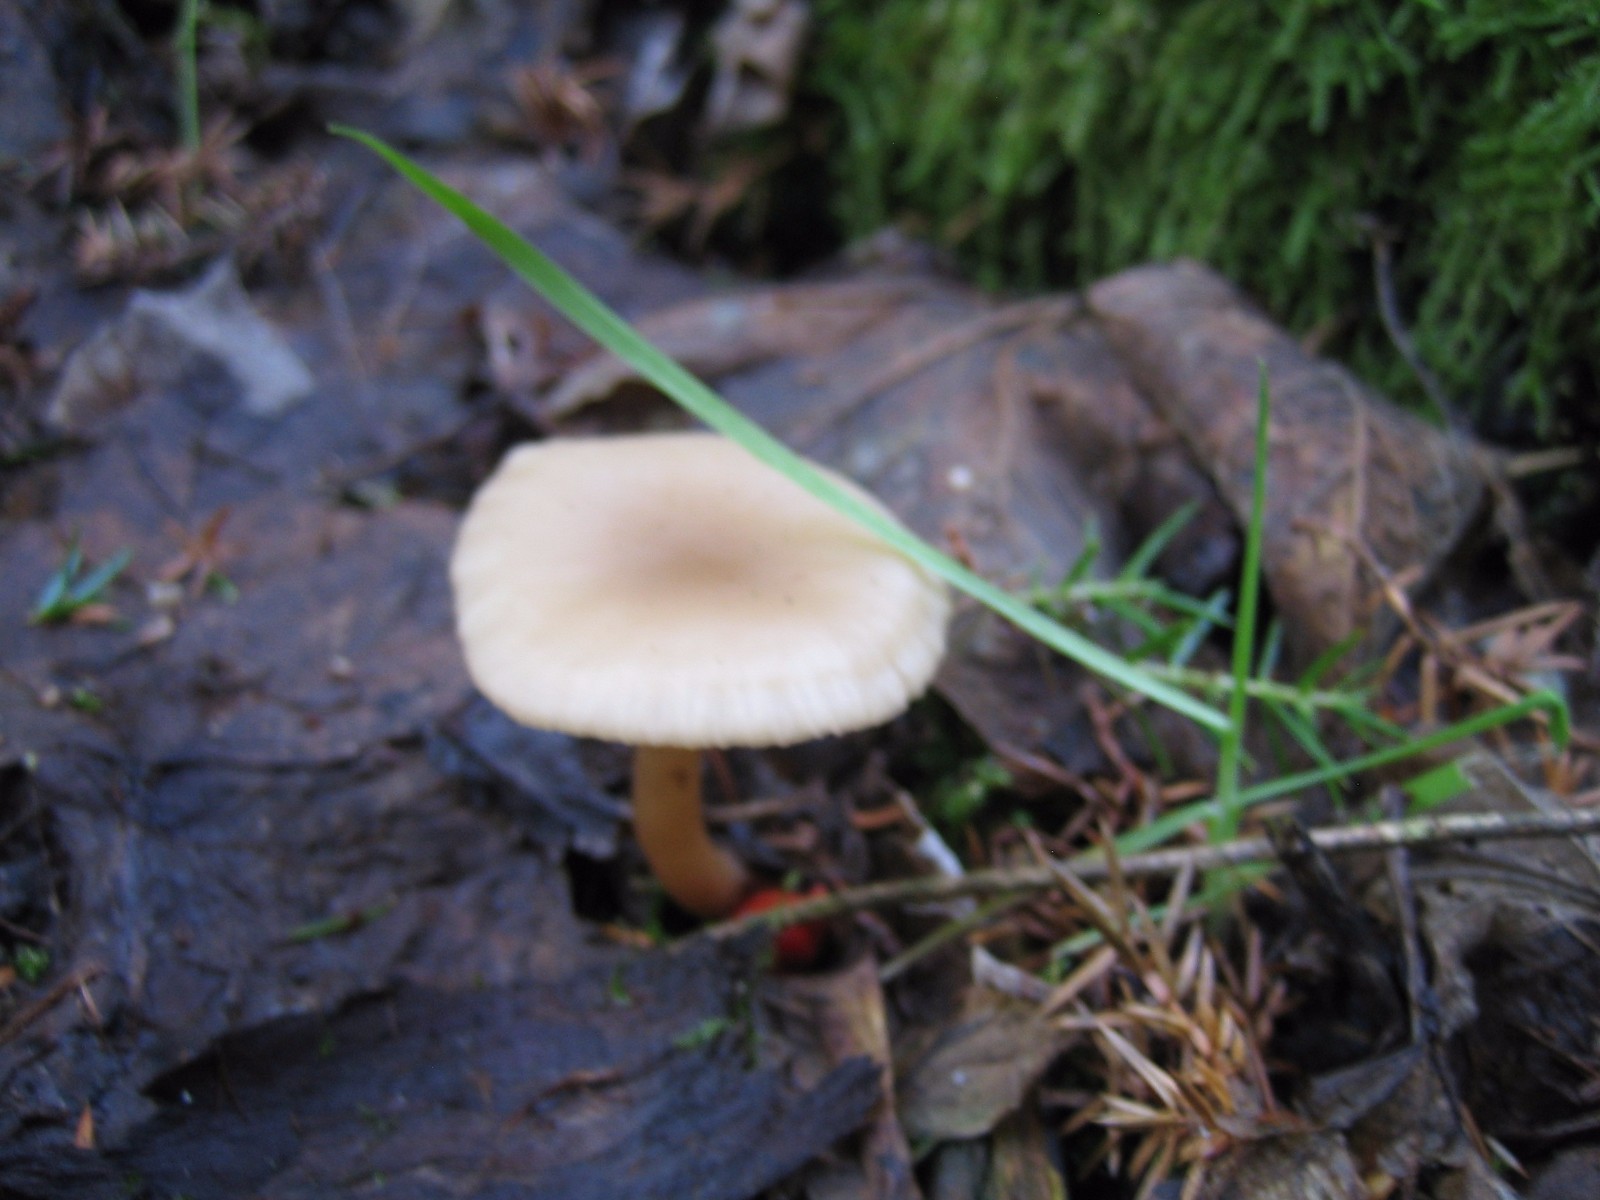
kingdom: Fungi
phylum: Basidiomycota
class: Agaricomycetes
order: Agaricales
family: Tricholomataceae
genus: Clitocybe
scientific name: Clitocybe fragrans
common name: vellugtende tragthat
